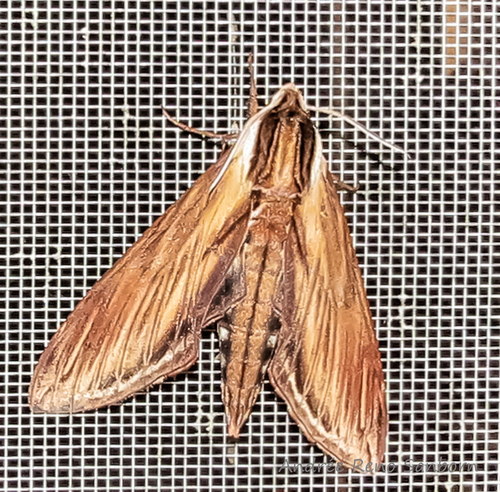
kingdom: Animalia
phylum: Arthropoda
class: Insecta
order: Lepidoptera
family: Sphingidae
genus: Sphinx
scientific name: Sphinx kalmiae
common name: Laurel sphinx
